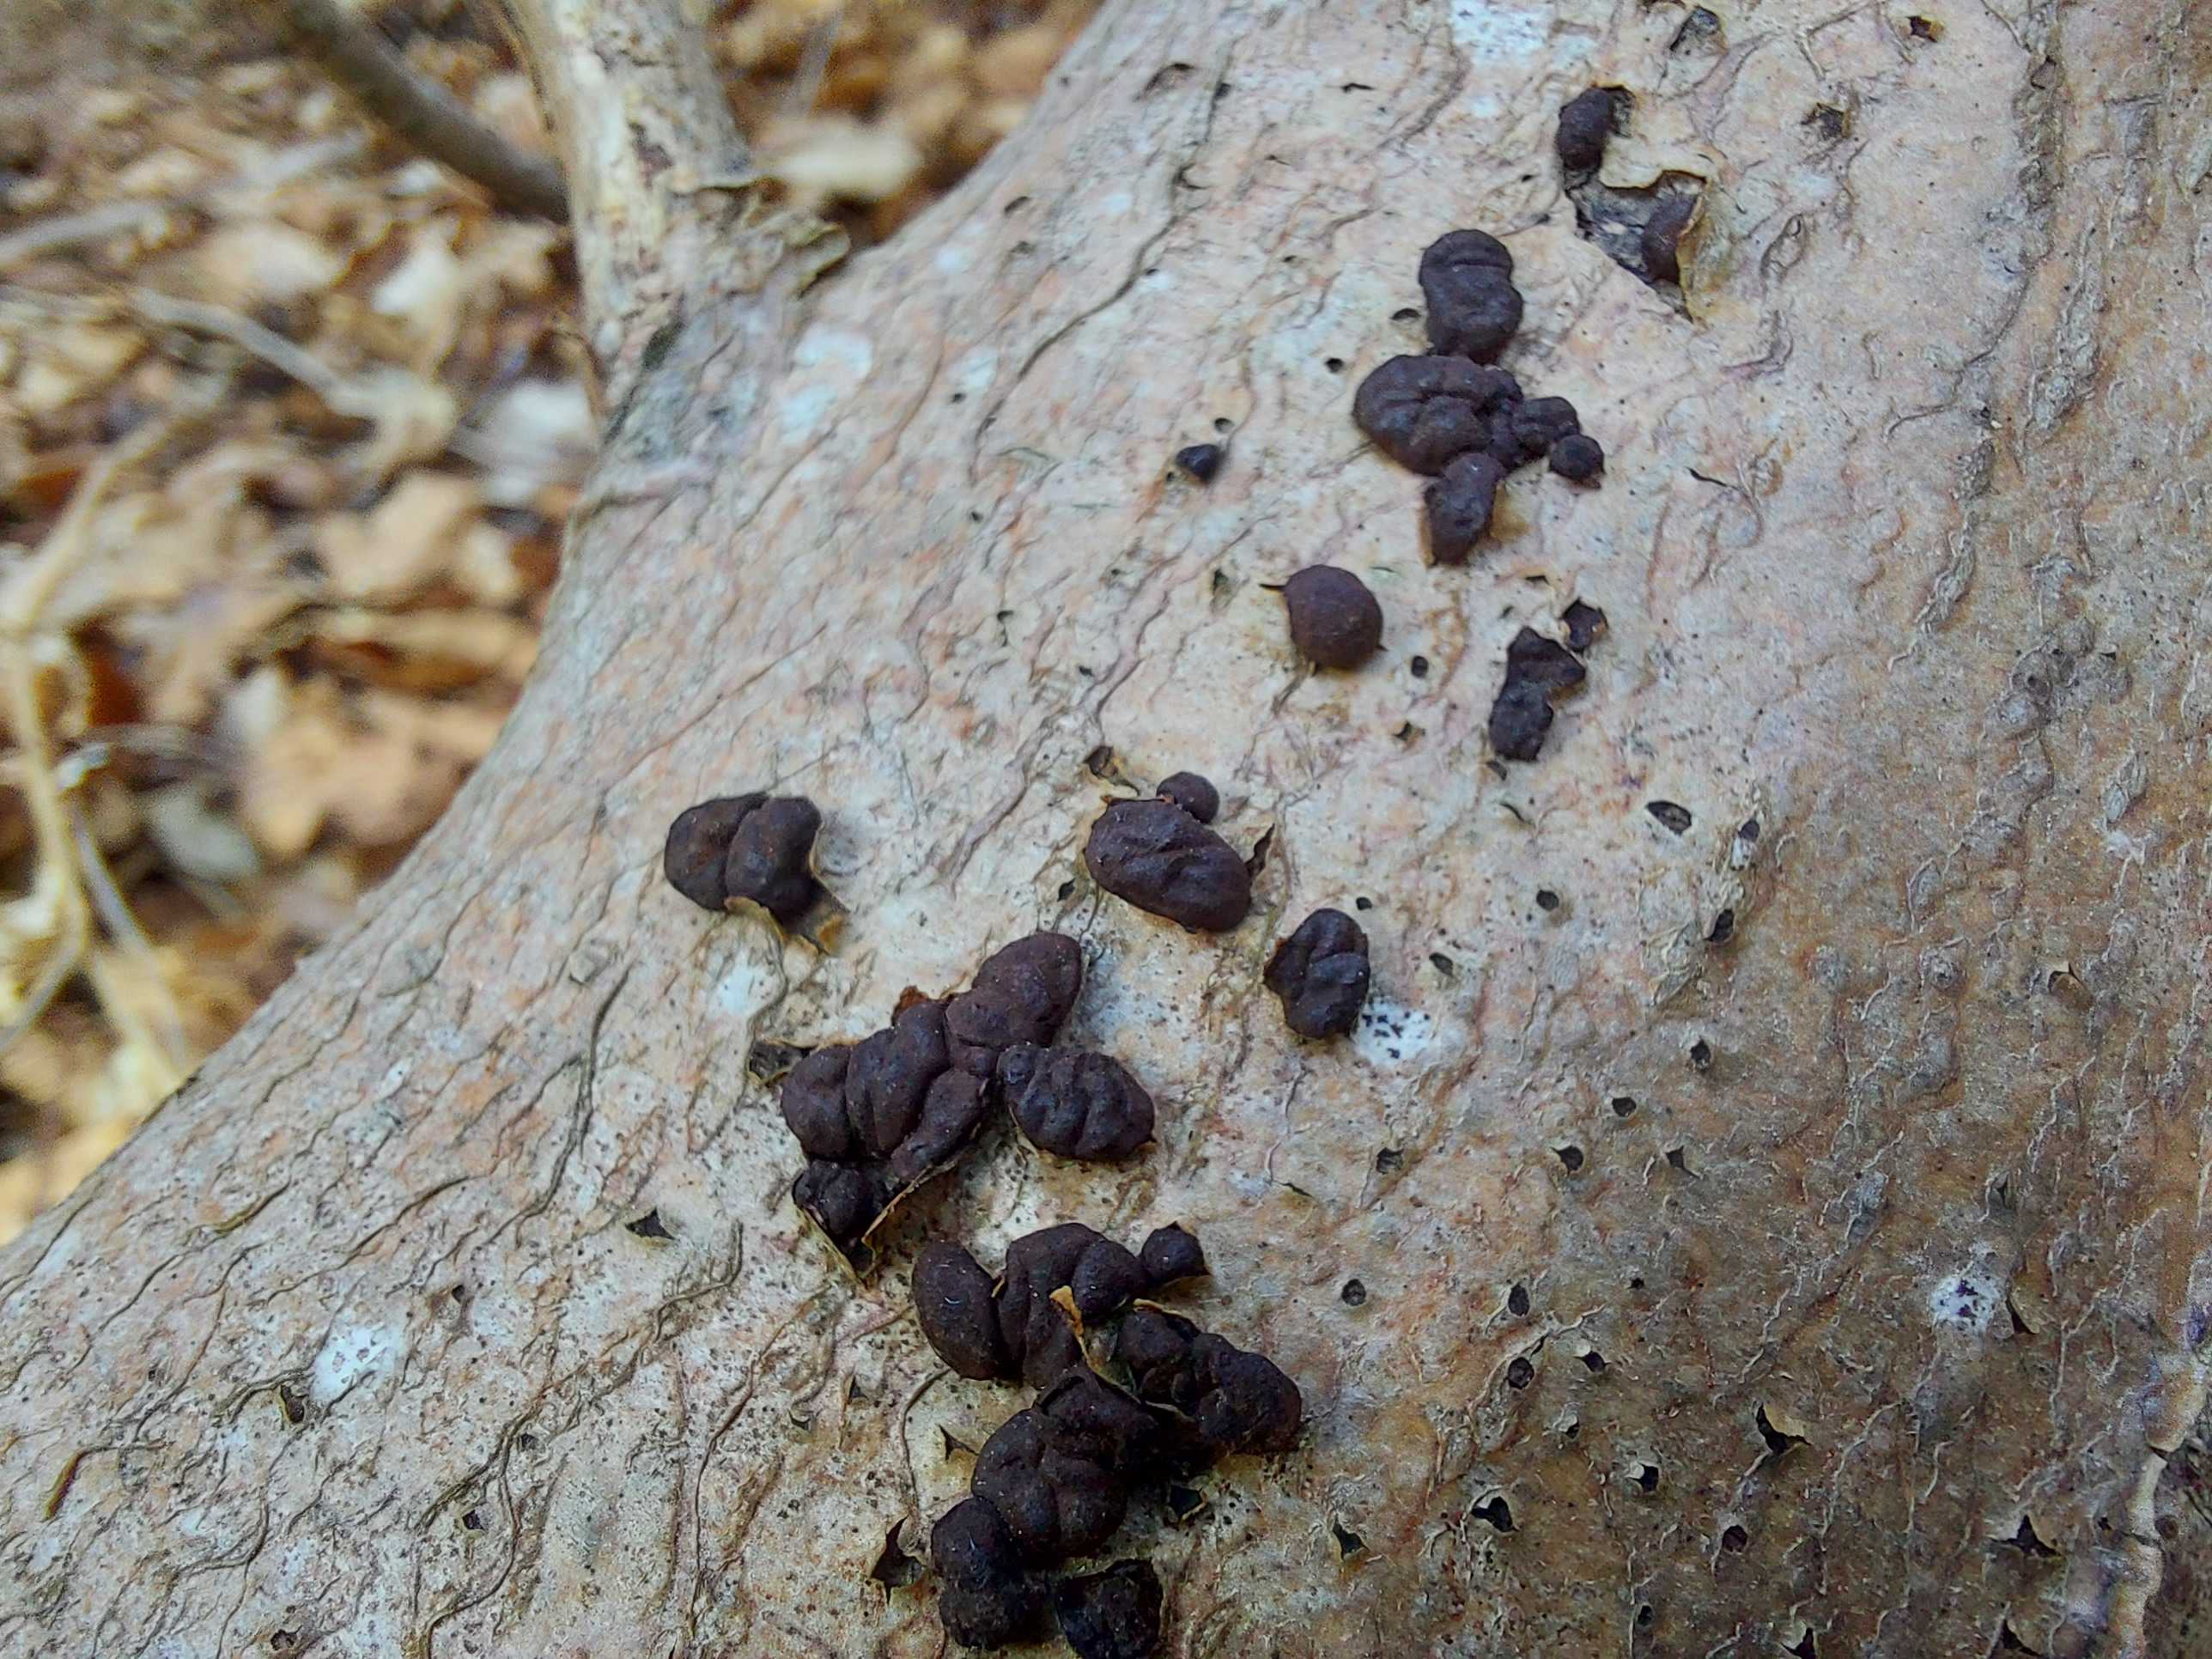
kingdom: Fungi
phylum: Ascomycota
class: Sordariomycetes
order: Xylariales
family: Hypoxylaceae
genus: Jackrogersella
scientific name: Jackrogersella cohaerens
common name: sammenflydende kulbær
